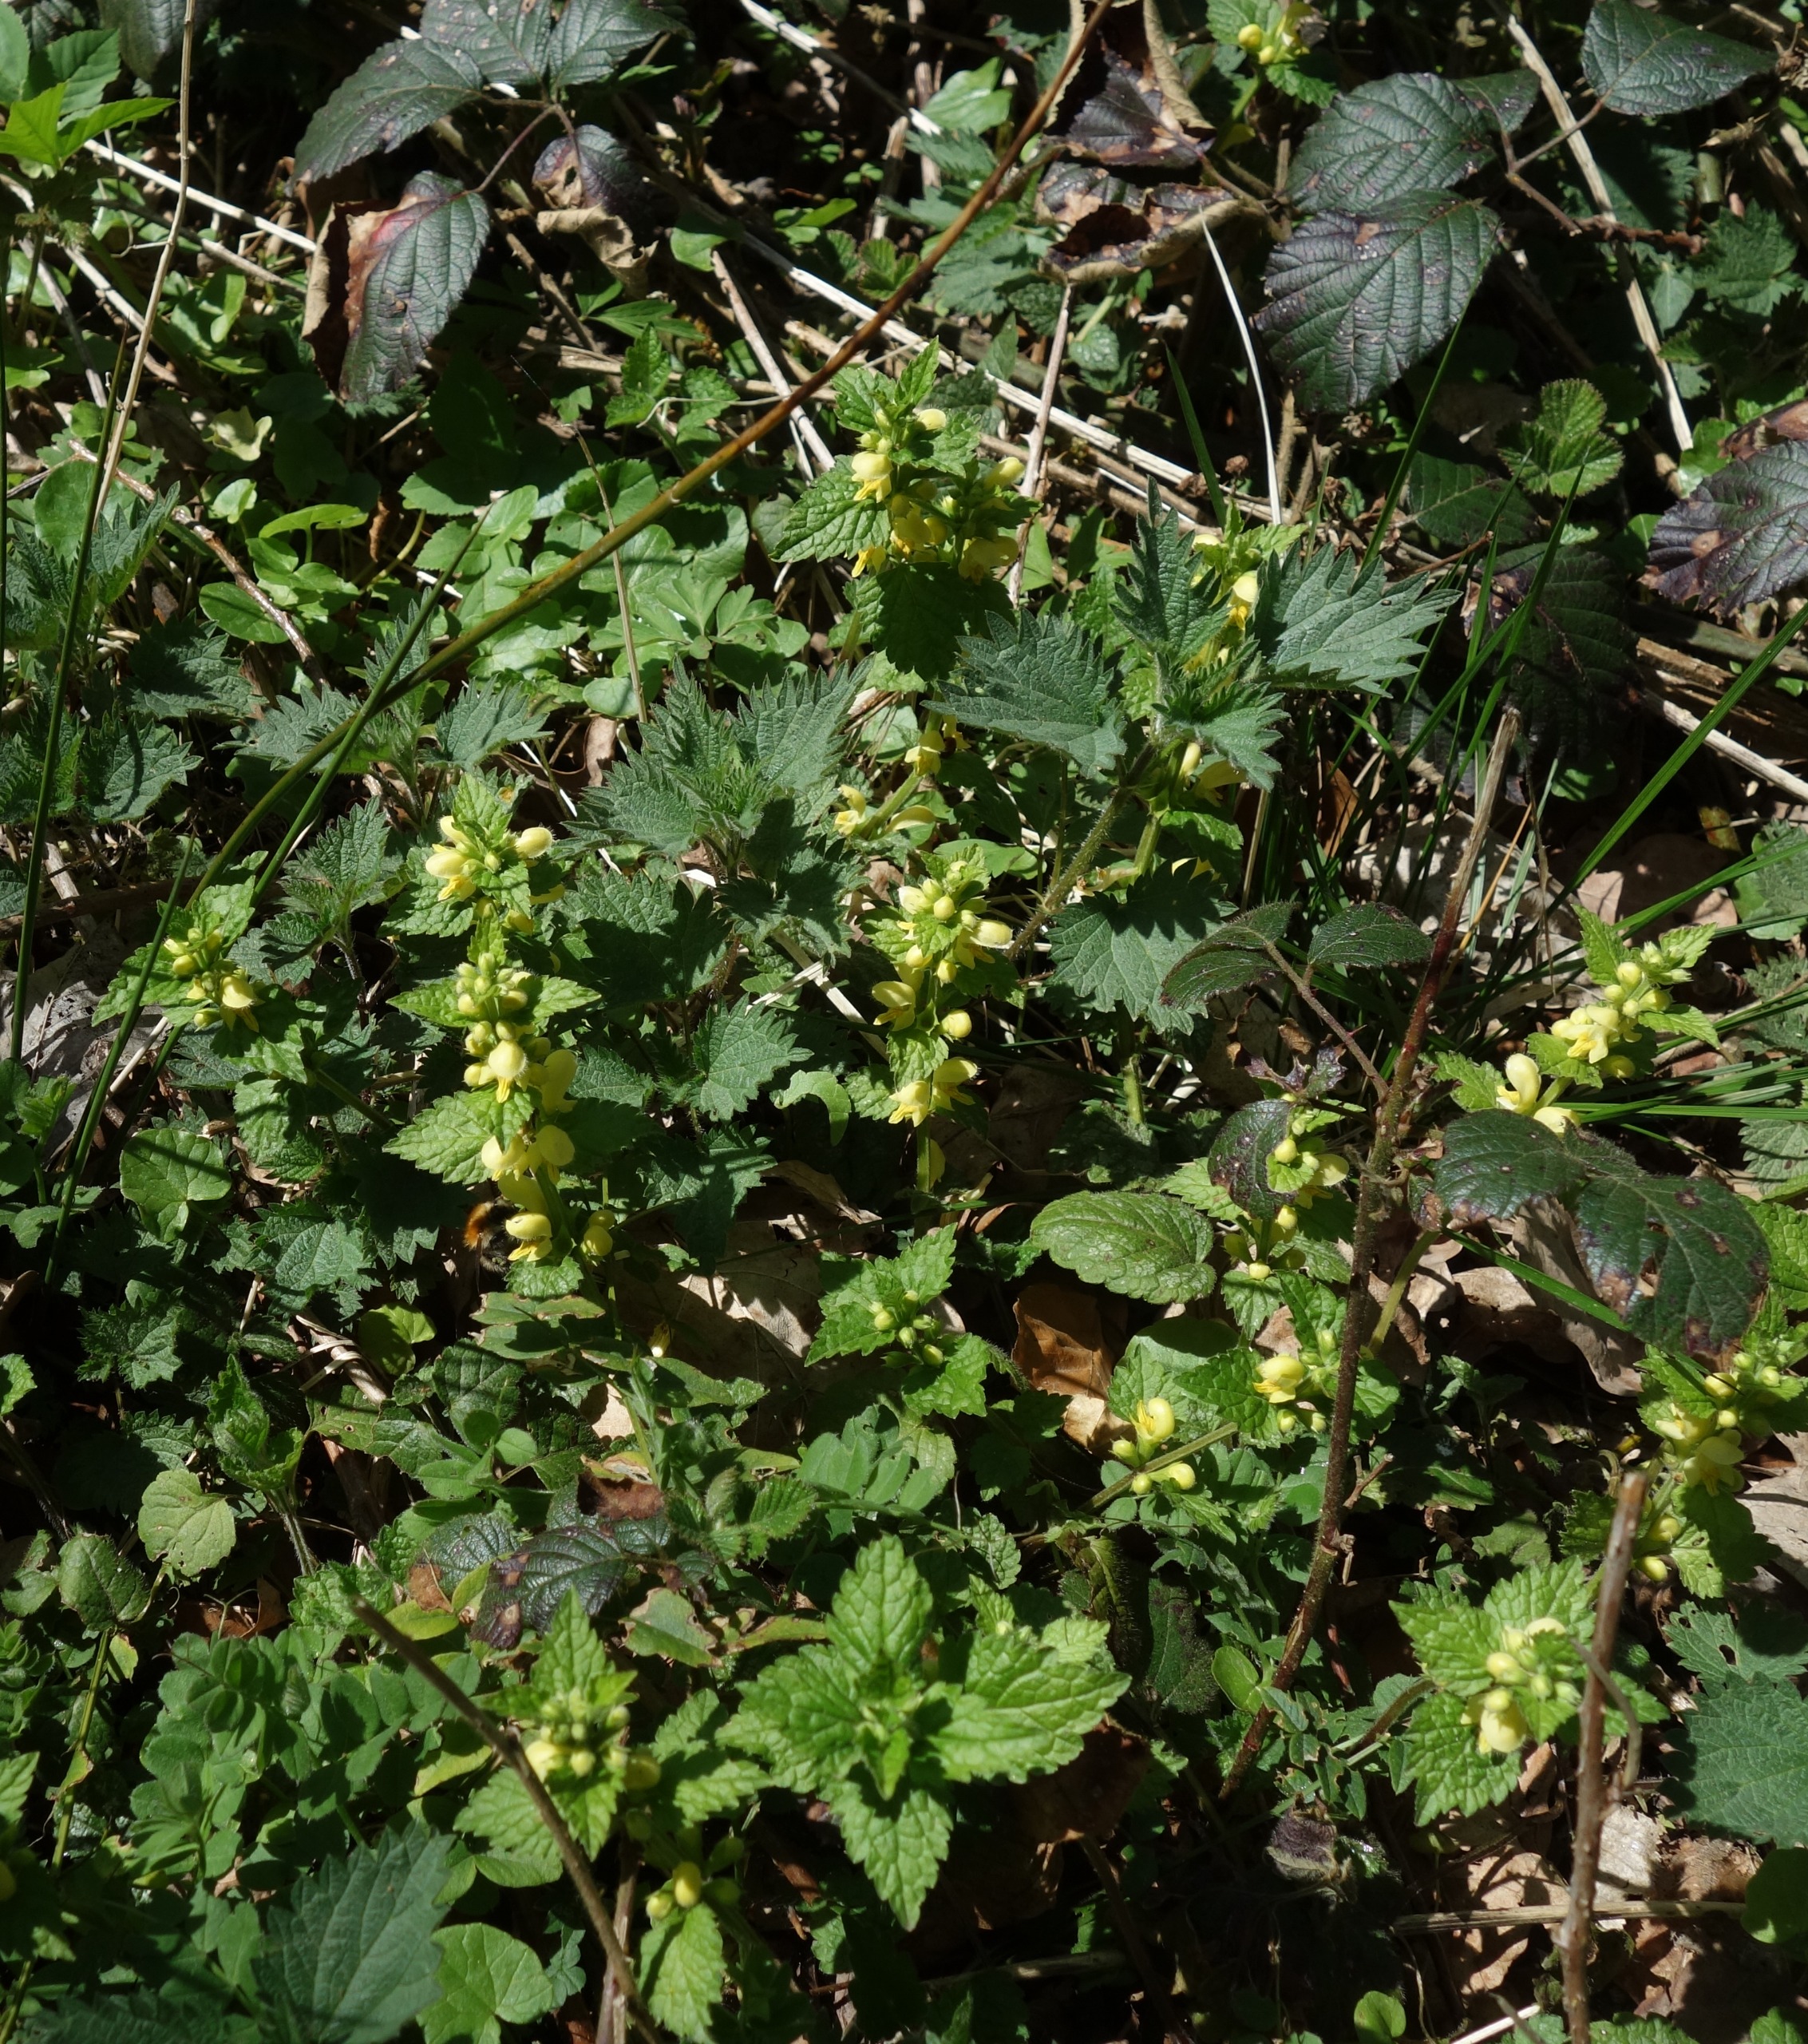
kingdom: Plantae
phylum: Tracheophyta
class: Magnoliopsida
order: Lamiales
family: Lamiaceae
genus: Lamium
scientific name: Lamium galeobdolon
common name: Almindelig guldnælde
